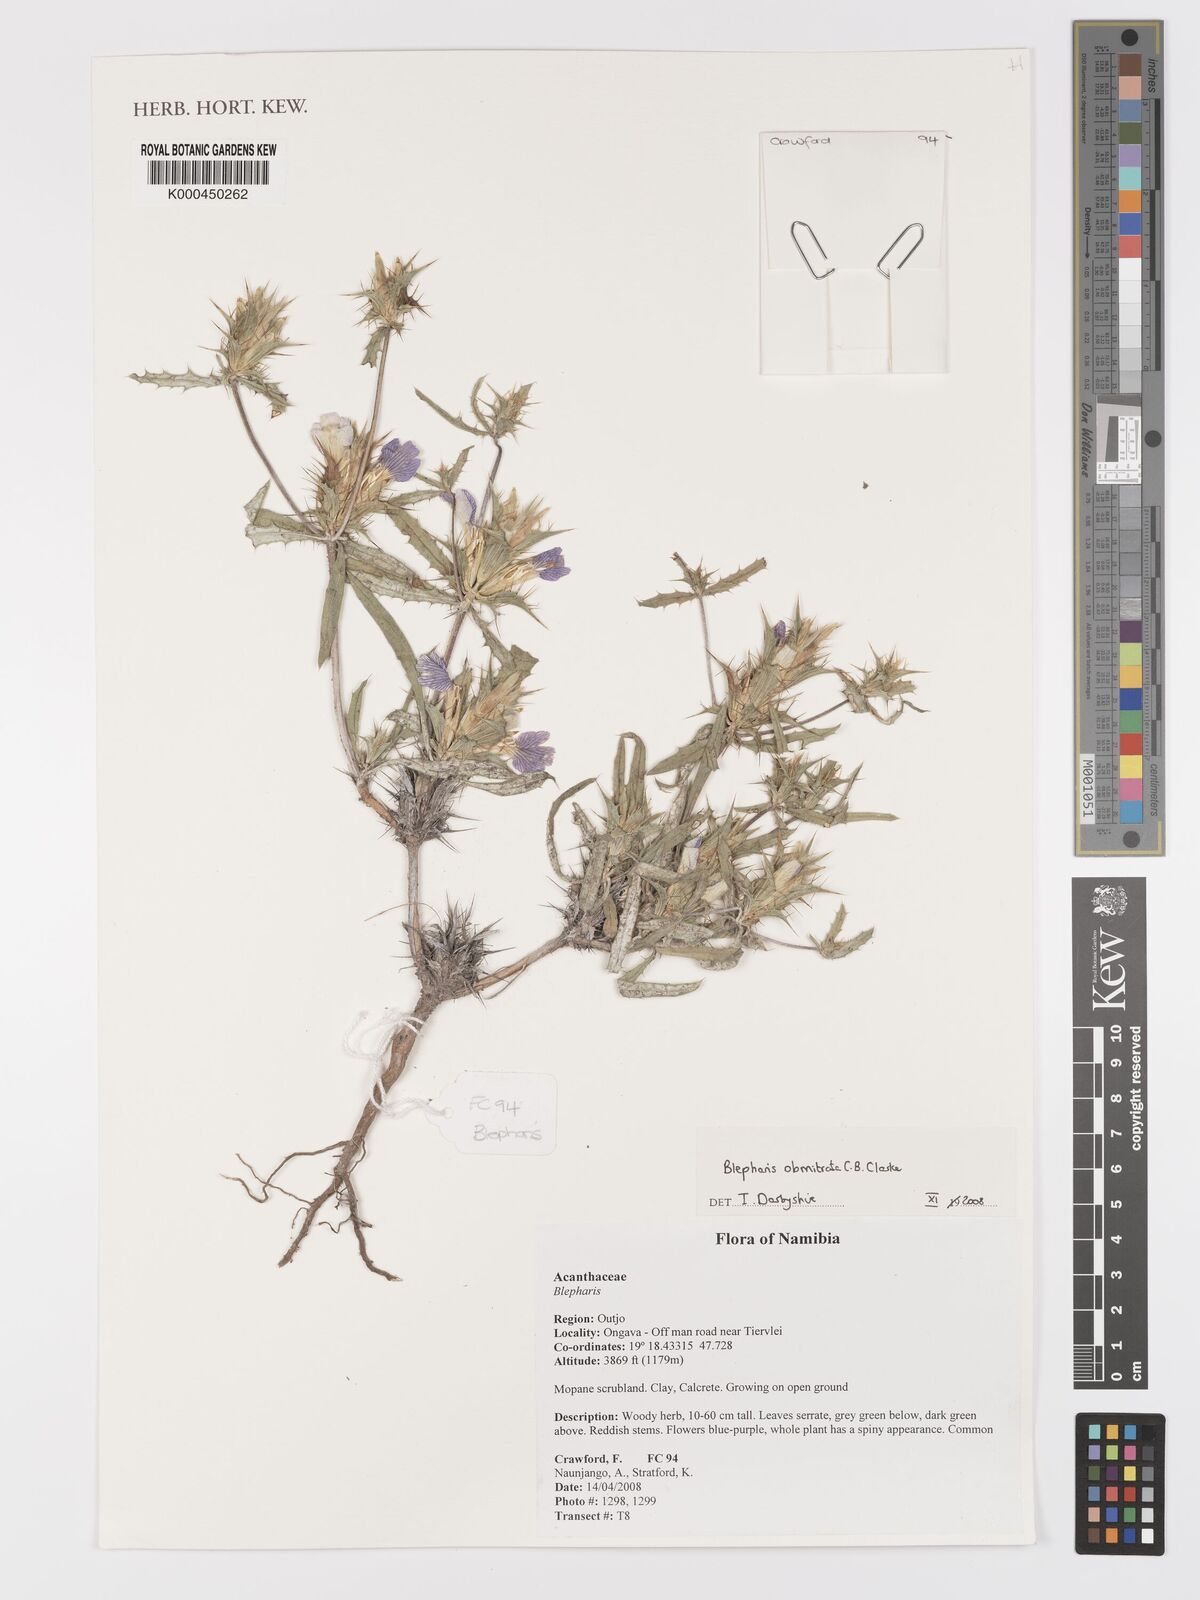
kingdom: Plantae
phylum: Tracheophyta
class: Magnoliopsida
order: Lamiales
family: Acanthaceae
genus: Blepharis
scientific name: Blepharis obmitrata
